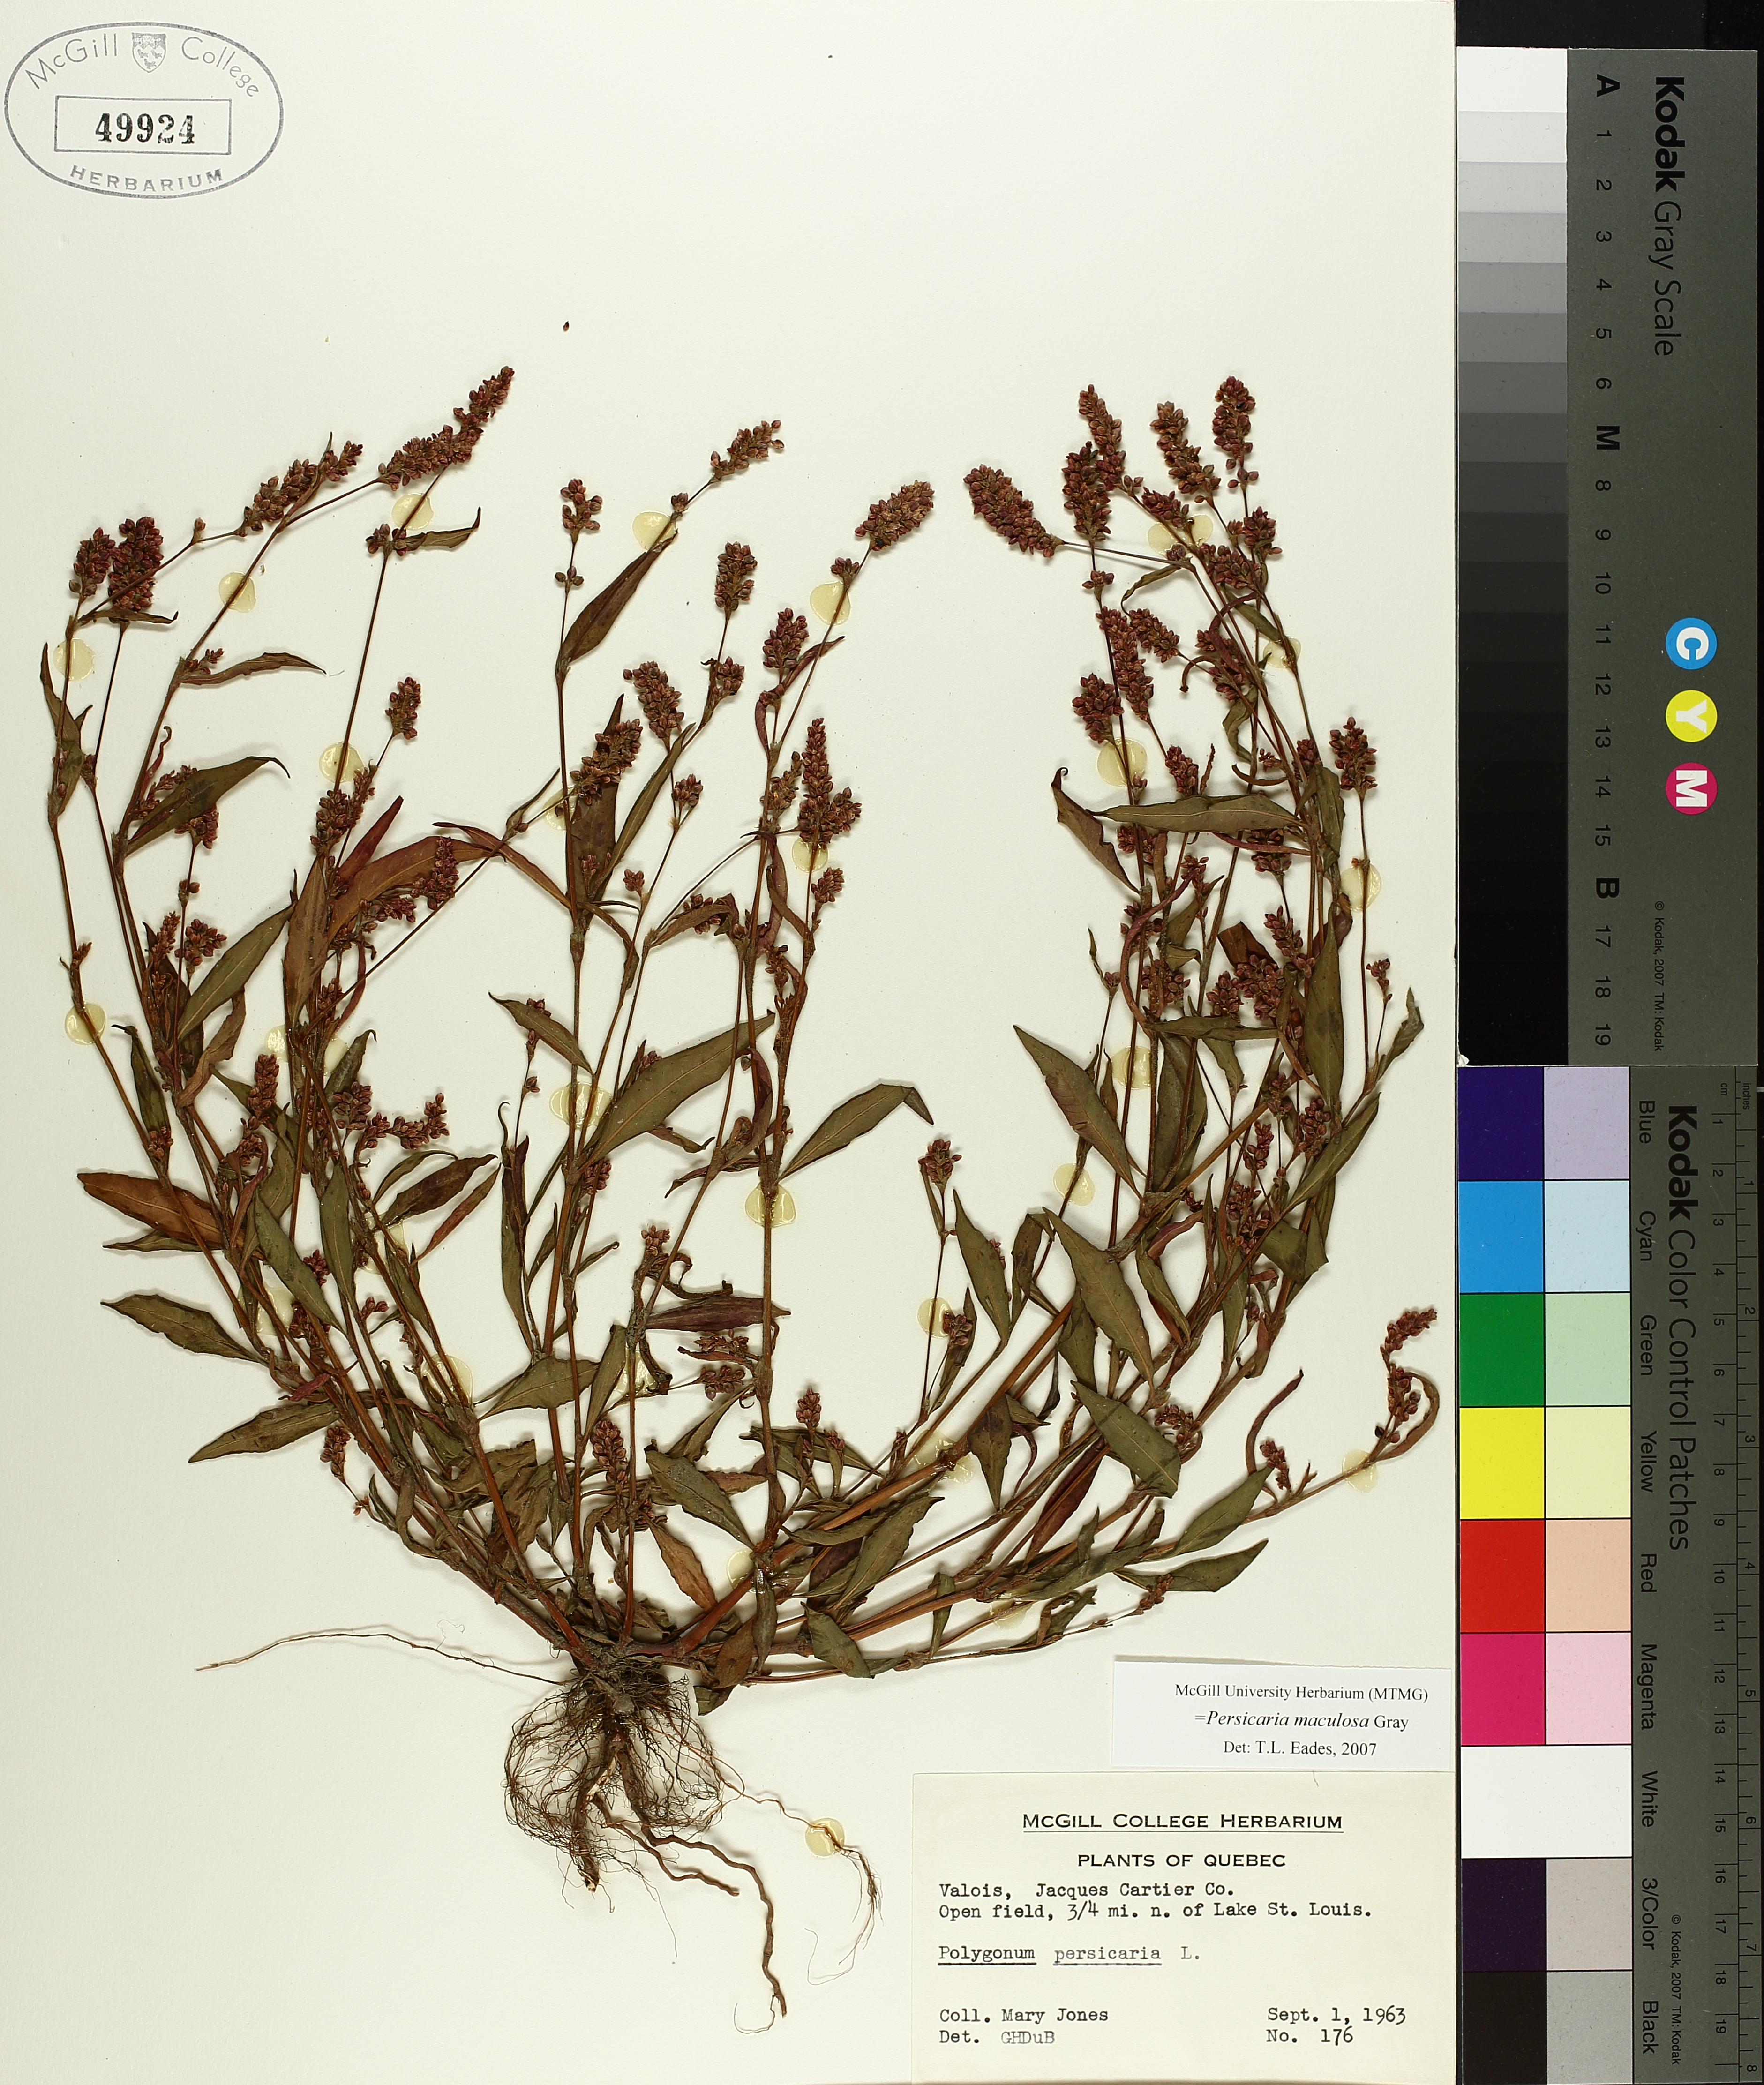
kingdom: Plantae
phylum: Tracheophyta
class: Magnoliopsida
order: Caryophyllales
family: Polygonaceae
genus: Persicaria
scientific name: Persicaria maculosa
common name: Redshank
